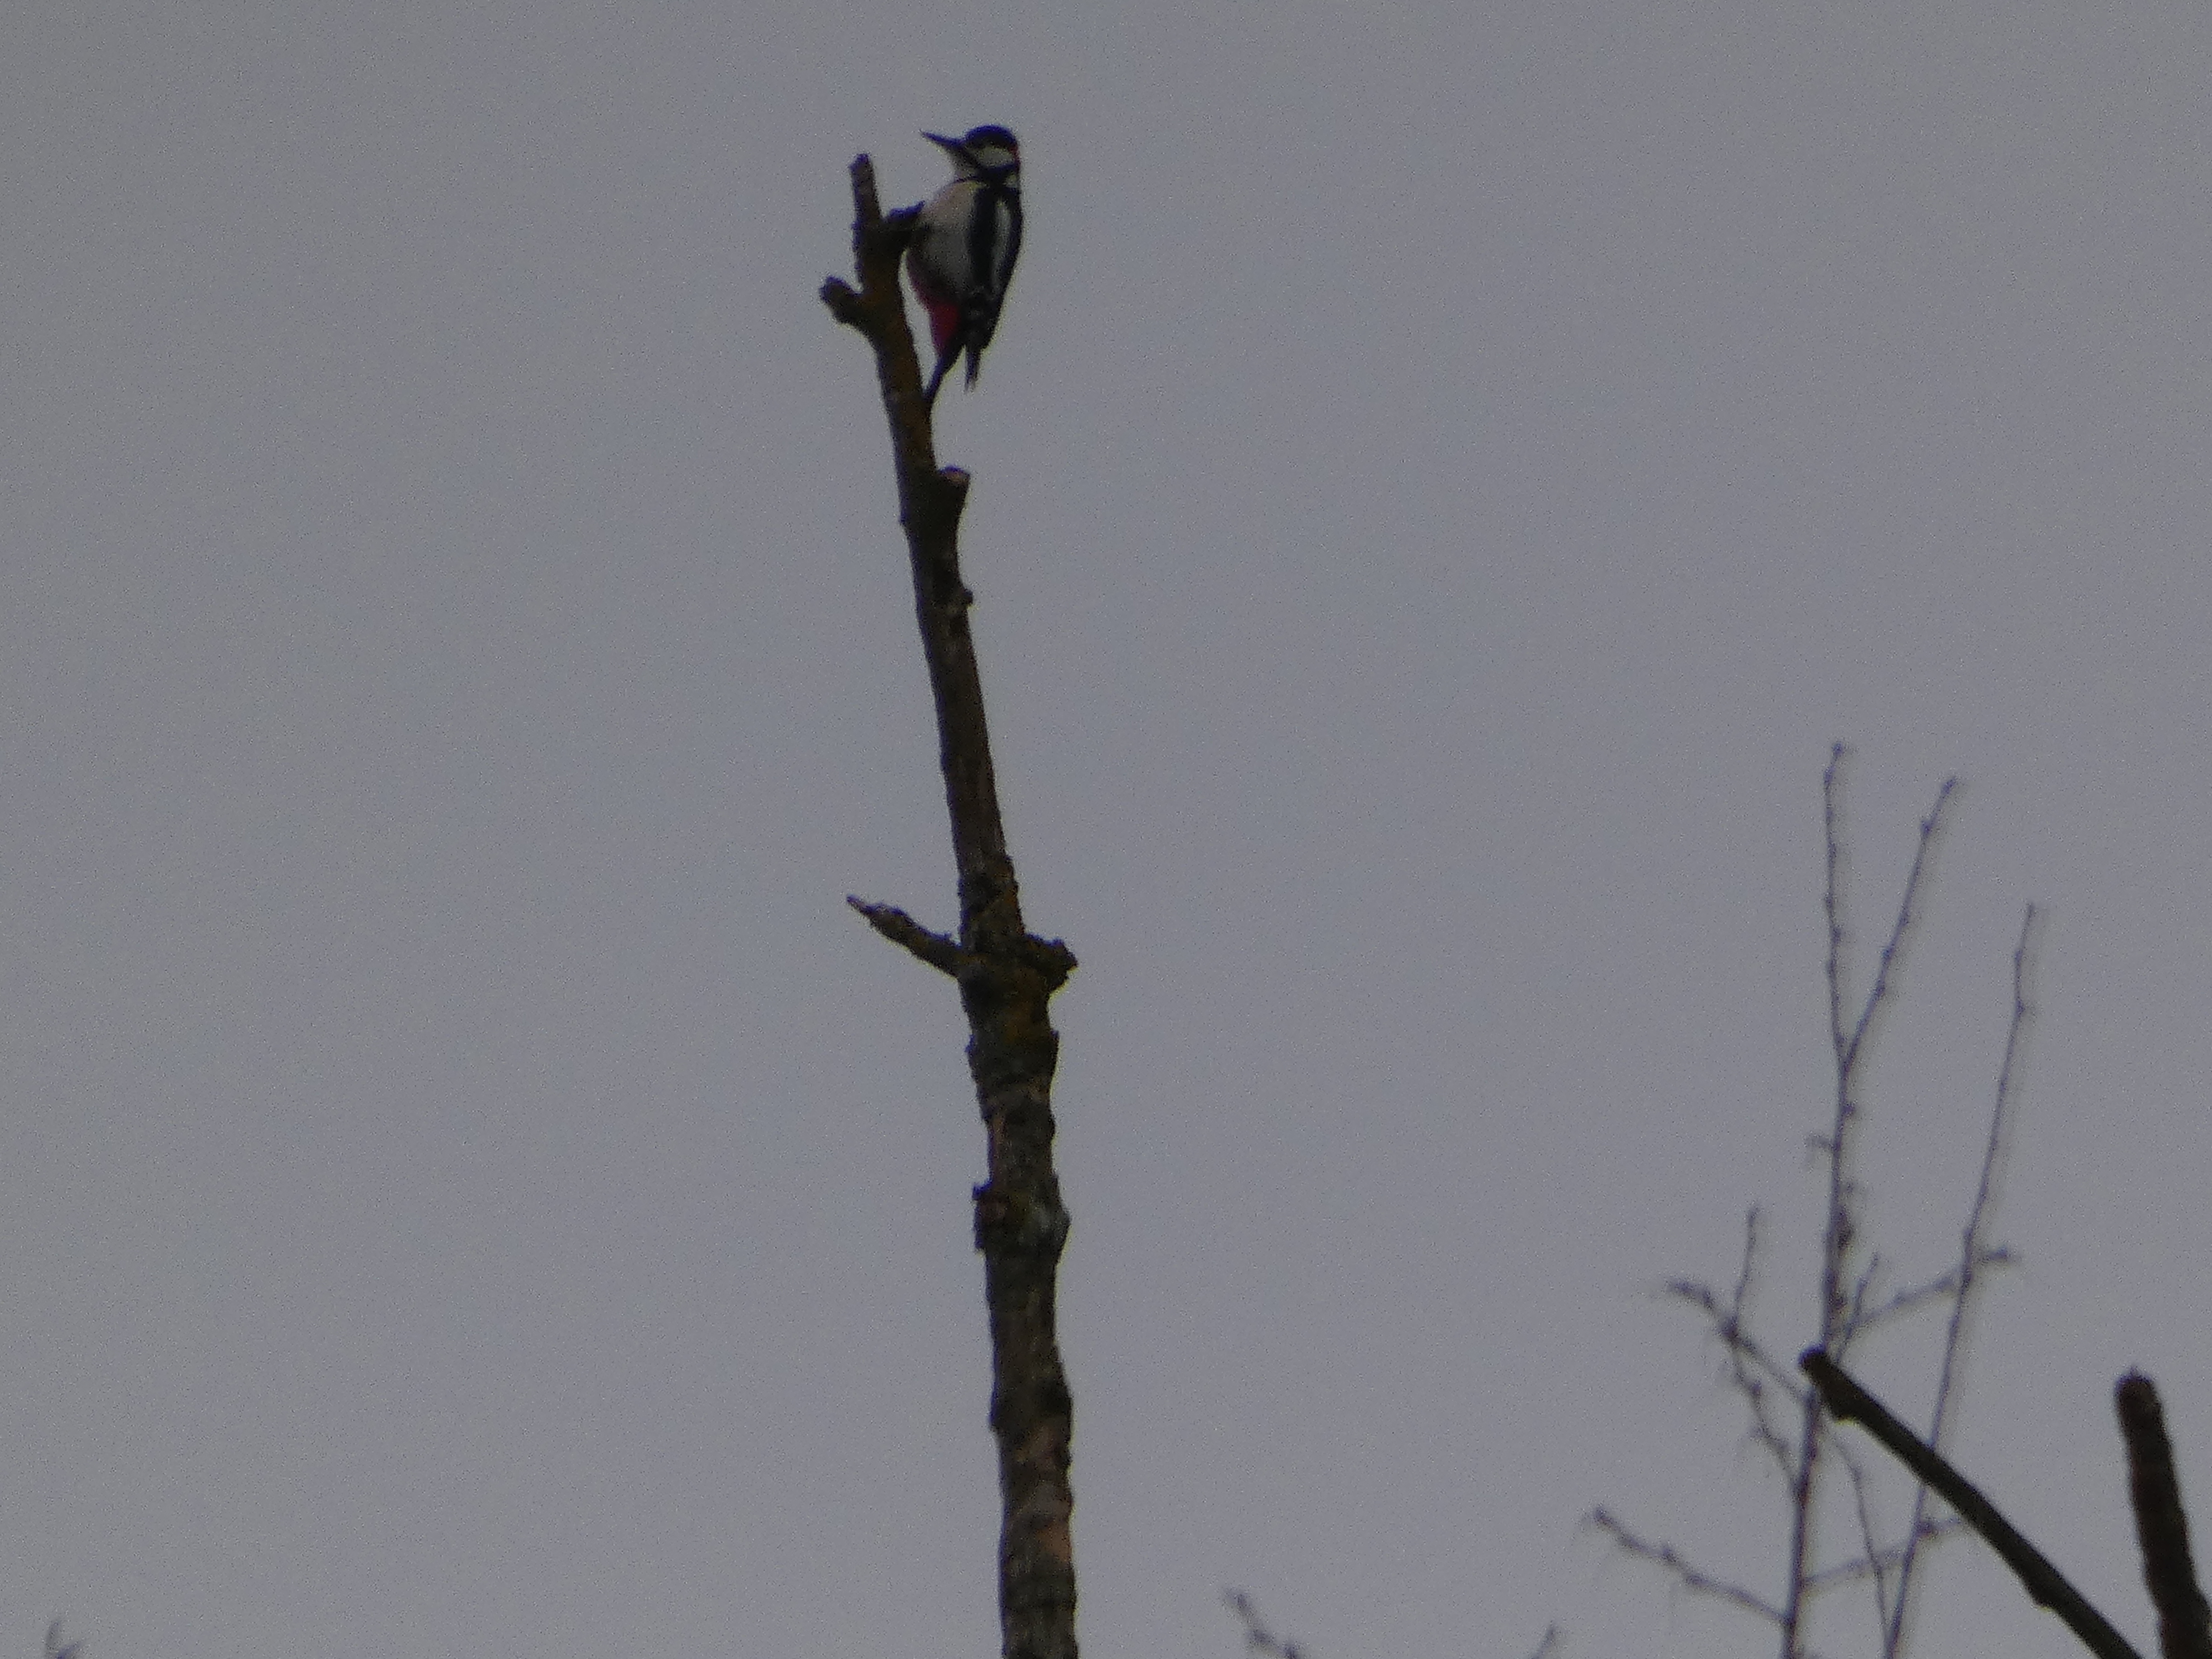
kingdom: Animalia
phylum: Chordata
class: Aves
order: Piciformes
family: Picidae
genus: Dendrocopos
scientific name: Dendrocopos major
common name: Stor flagspætte
